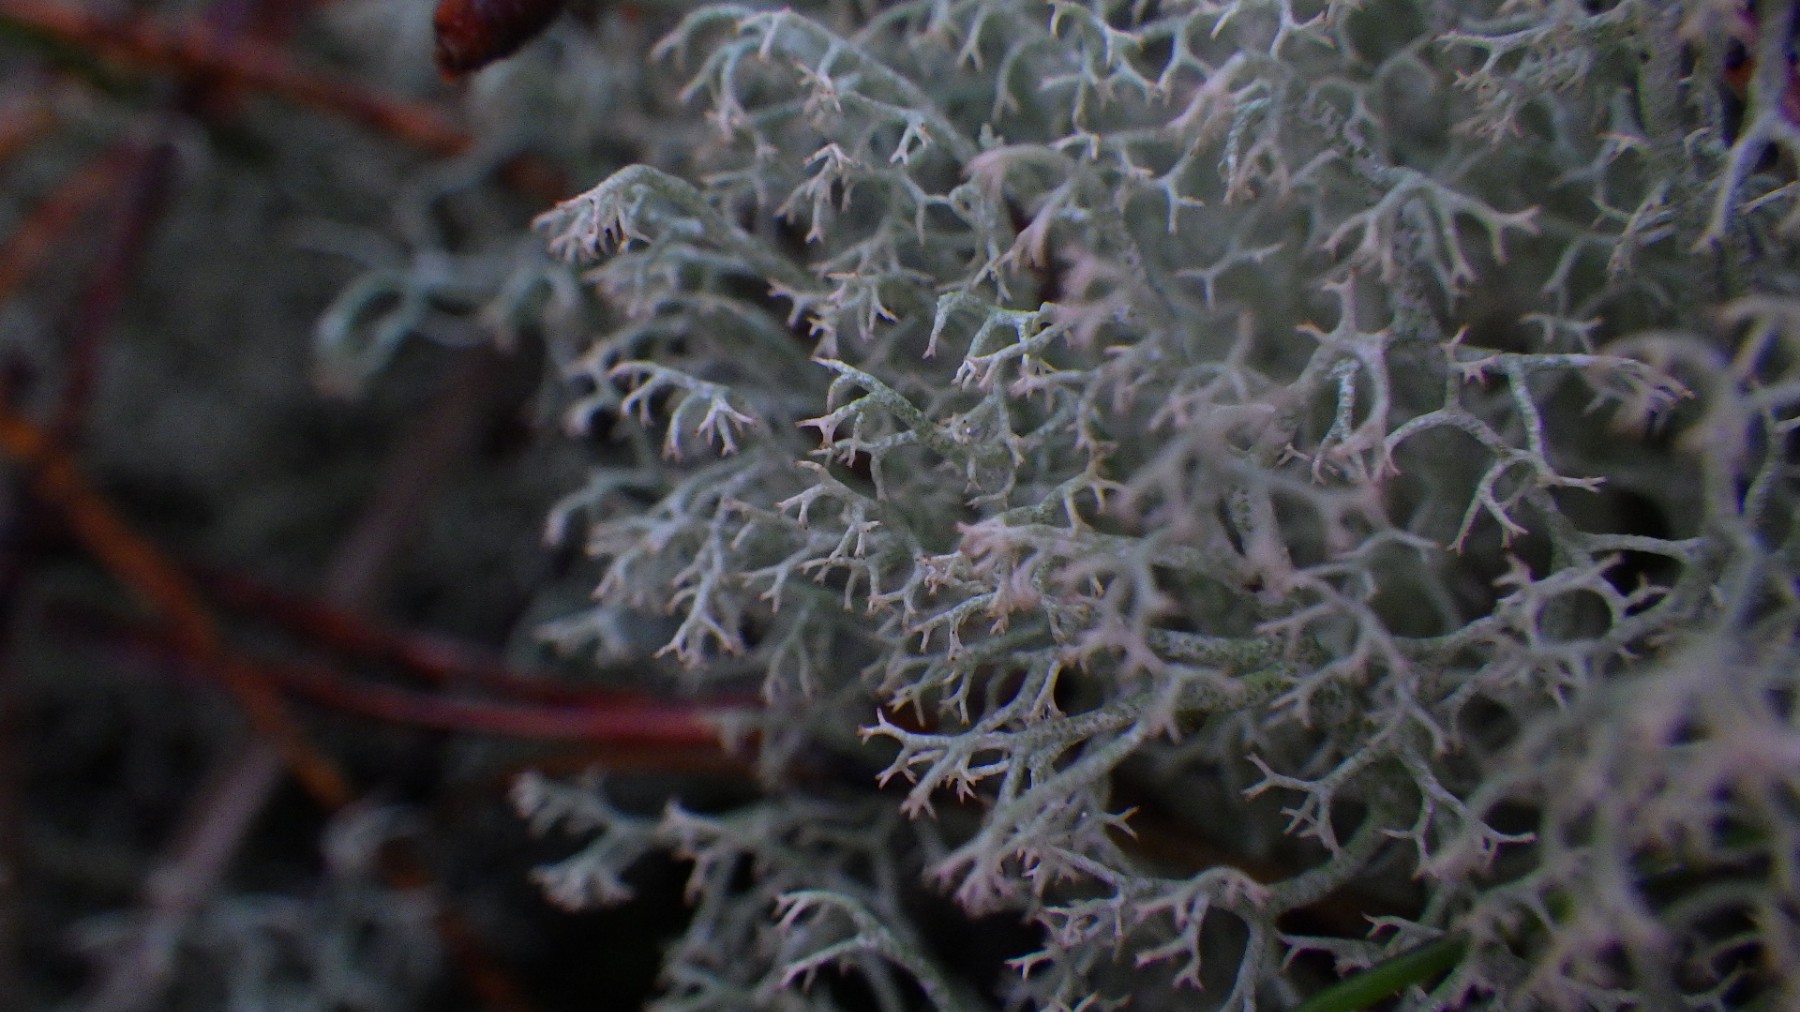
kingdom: Fungi
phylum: Ascomycota
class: Lecanoromycetes
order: Lecanorales
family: Cladoniaceae
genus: Cladonia
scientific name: Cladonia ciliata
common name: spinkel rensdyrlav
